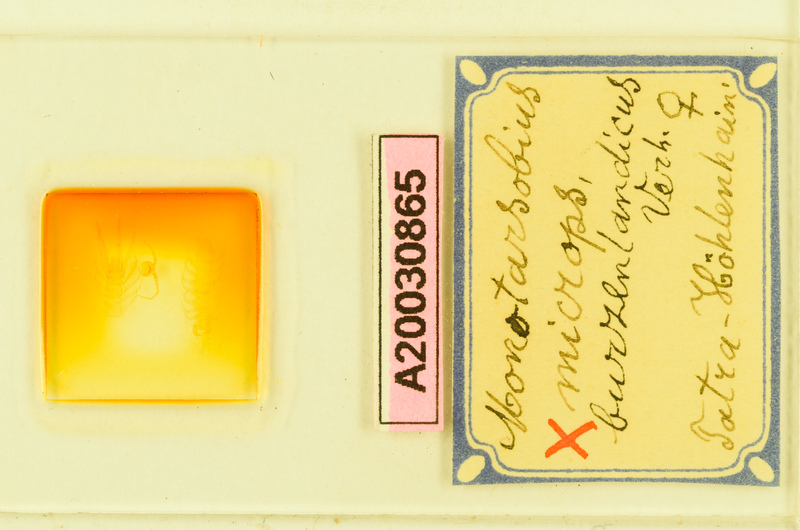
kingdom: Animalia
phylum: Arthropoda
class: Chilopoda
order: Lithobiomorpha
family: Lithobiidae
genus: Monotarsobius
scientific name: Monotarsobius microps
